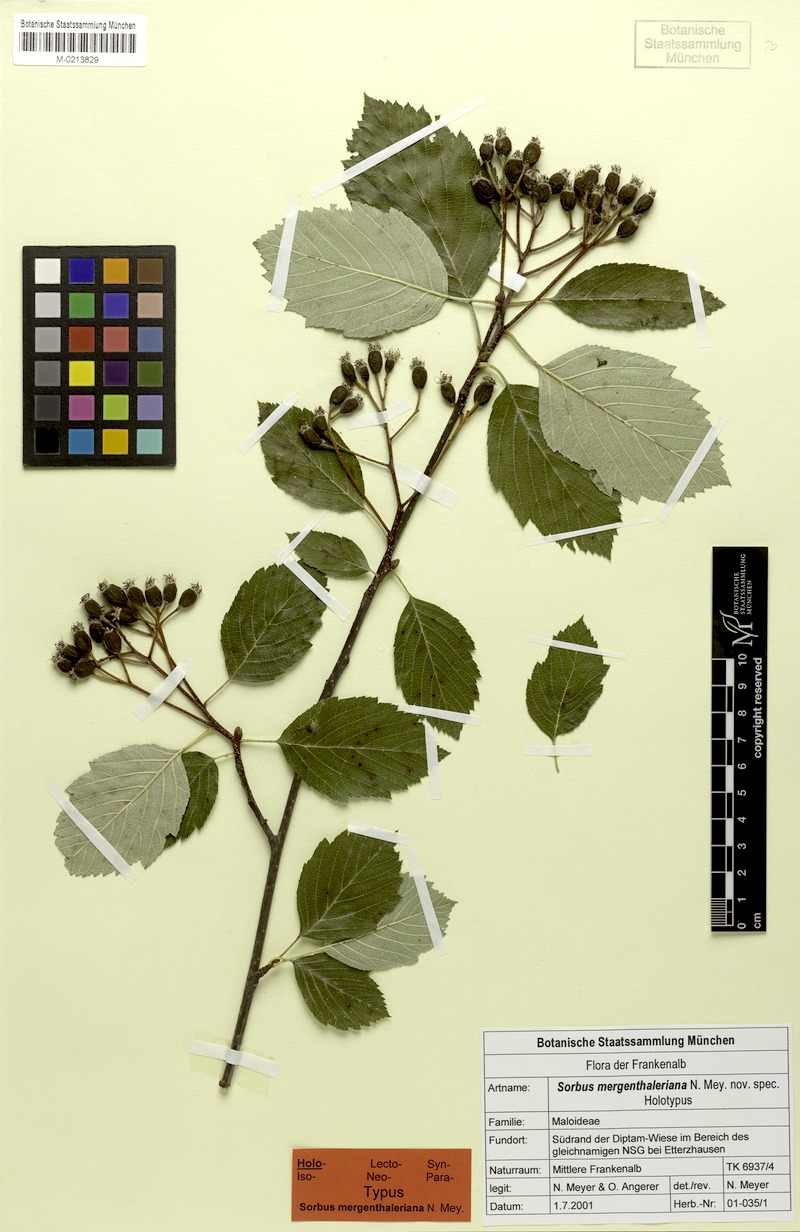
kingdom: Plantae
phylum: Tracheophyta
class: Magnoliopsida
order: Rosales
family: Rosaceae
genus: Karpatiosorbus
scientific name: Karpatiosorbus mergenthaleriana
